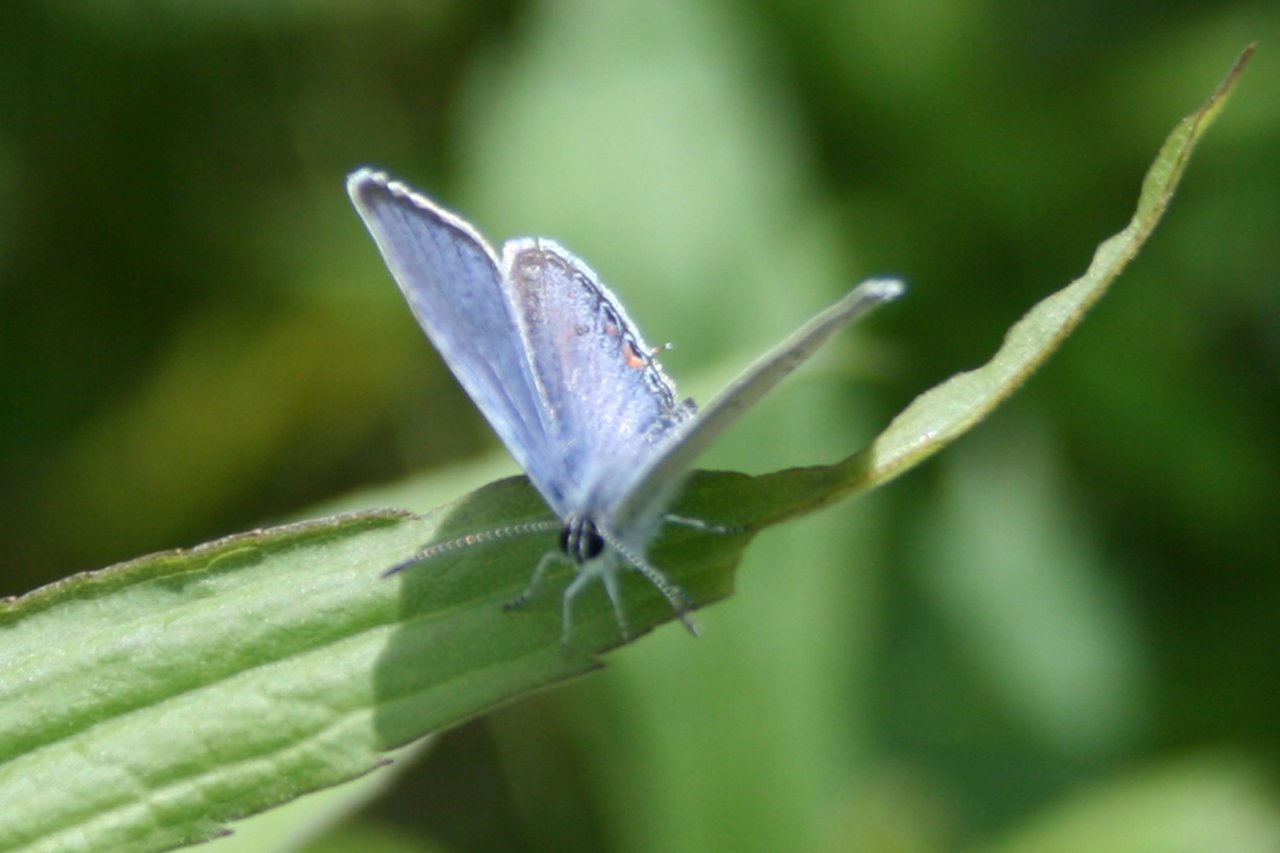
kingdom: Animalia
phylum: Arthropoda
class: Insecta
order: Lepidoptera
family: Lycaenidae
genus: Elkalyce
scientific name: Elkalyce comyntas
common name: Eastern Tailed-Blue
